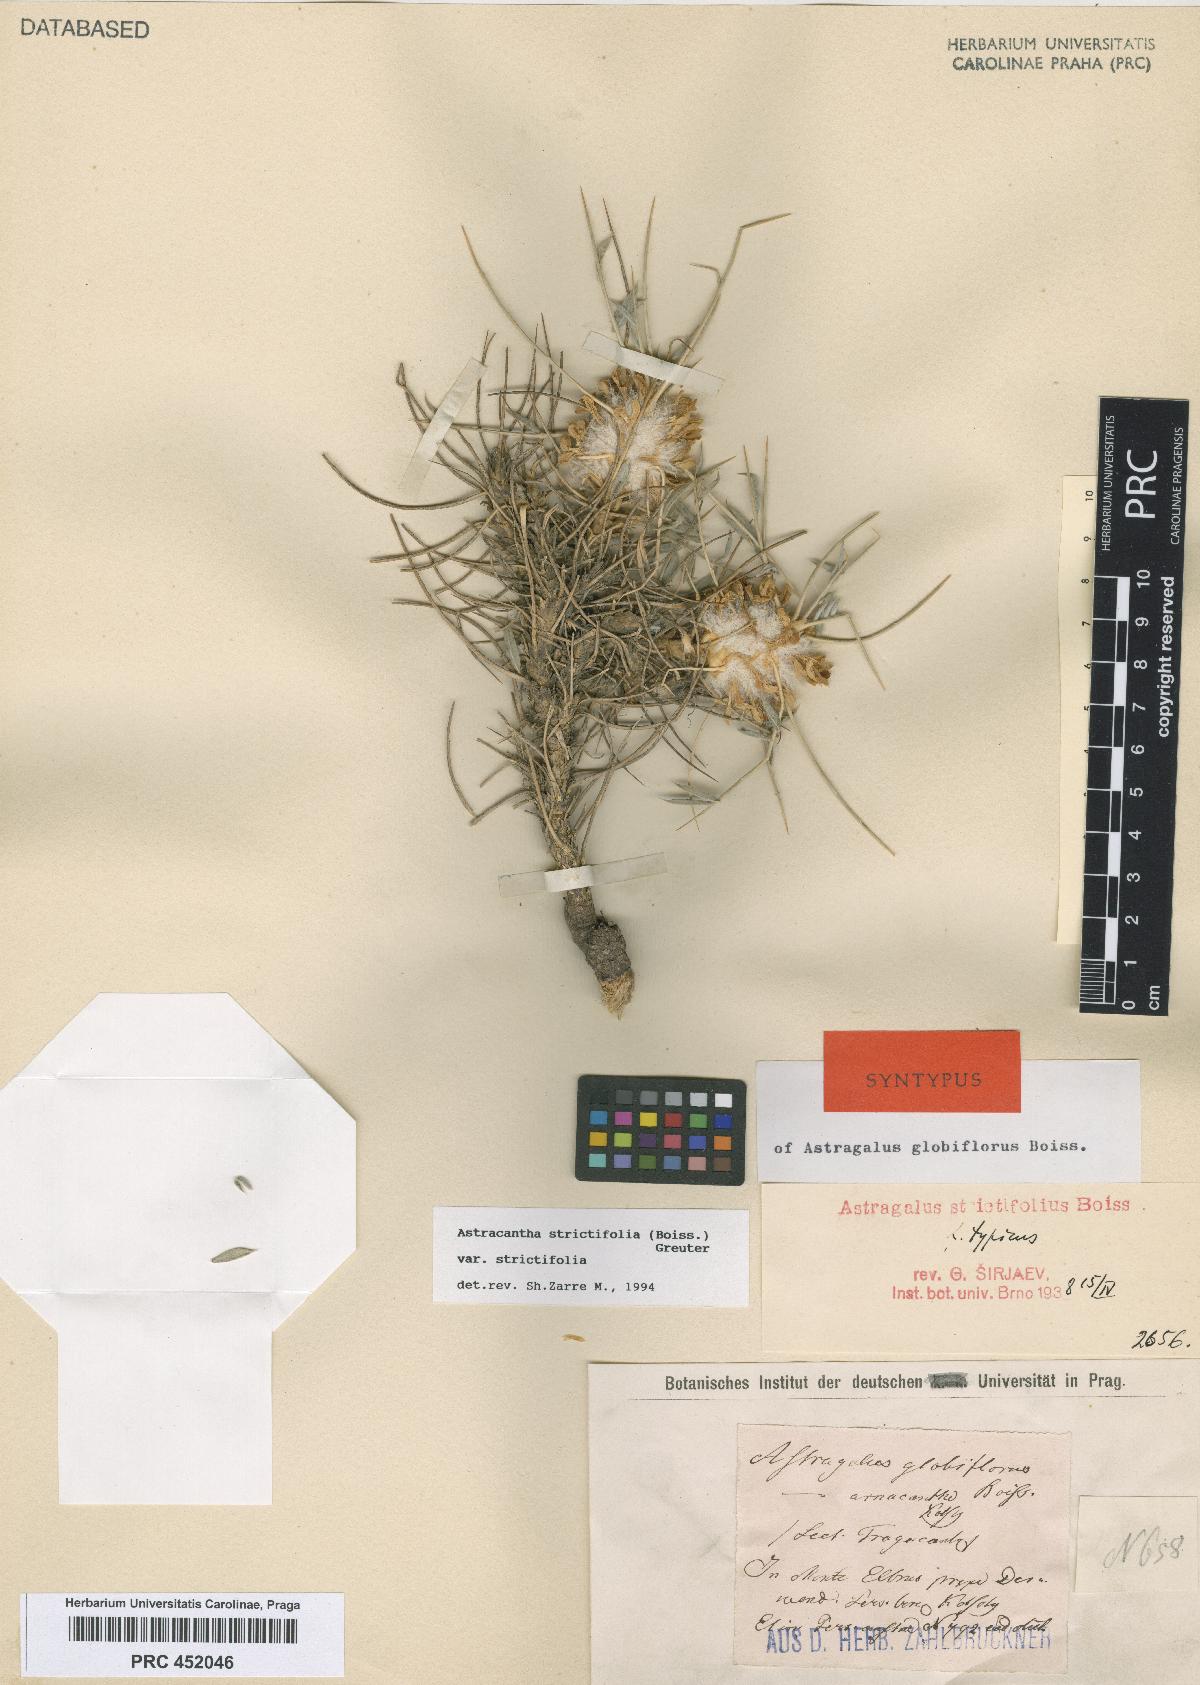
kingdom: Plantae
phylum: Tracheophyta
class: Magnoliopsida
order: Fabales
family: Fabaceae
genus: Astragalus
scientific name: Astragalus globiflorus
